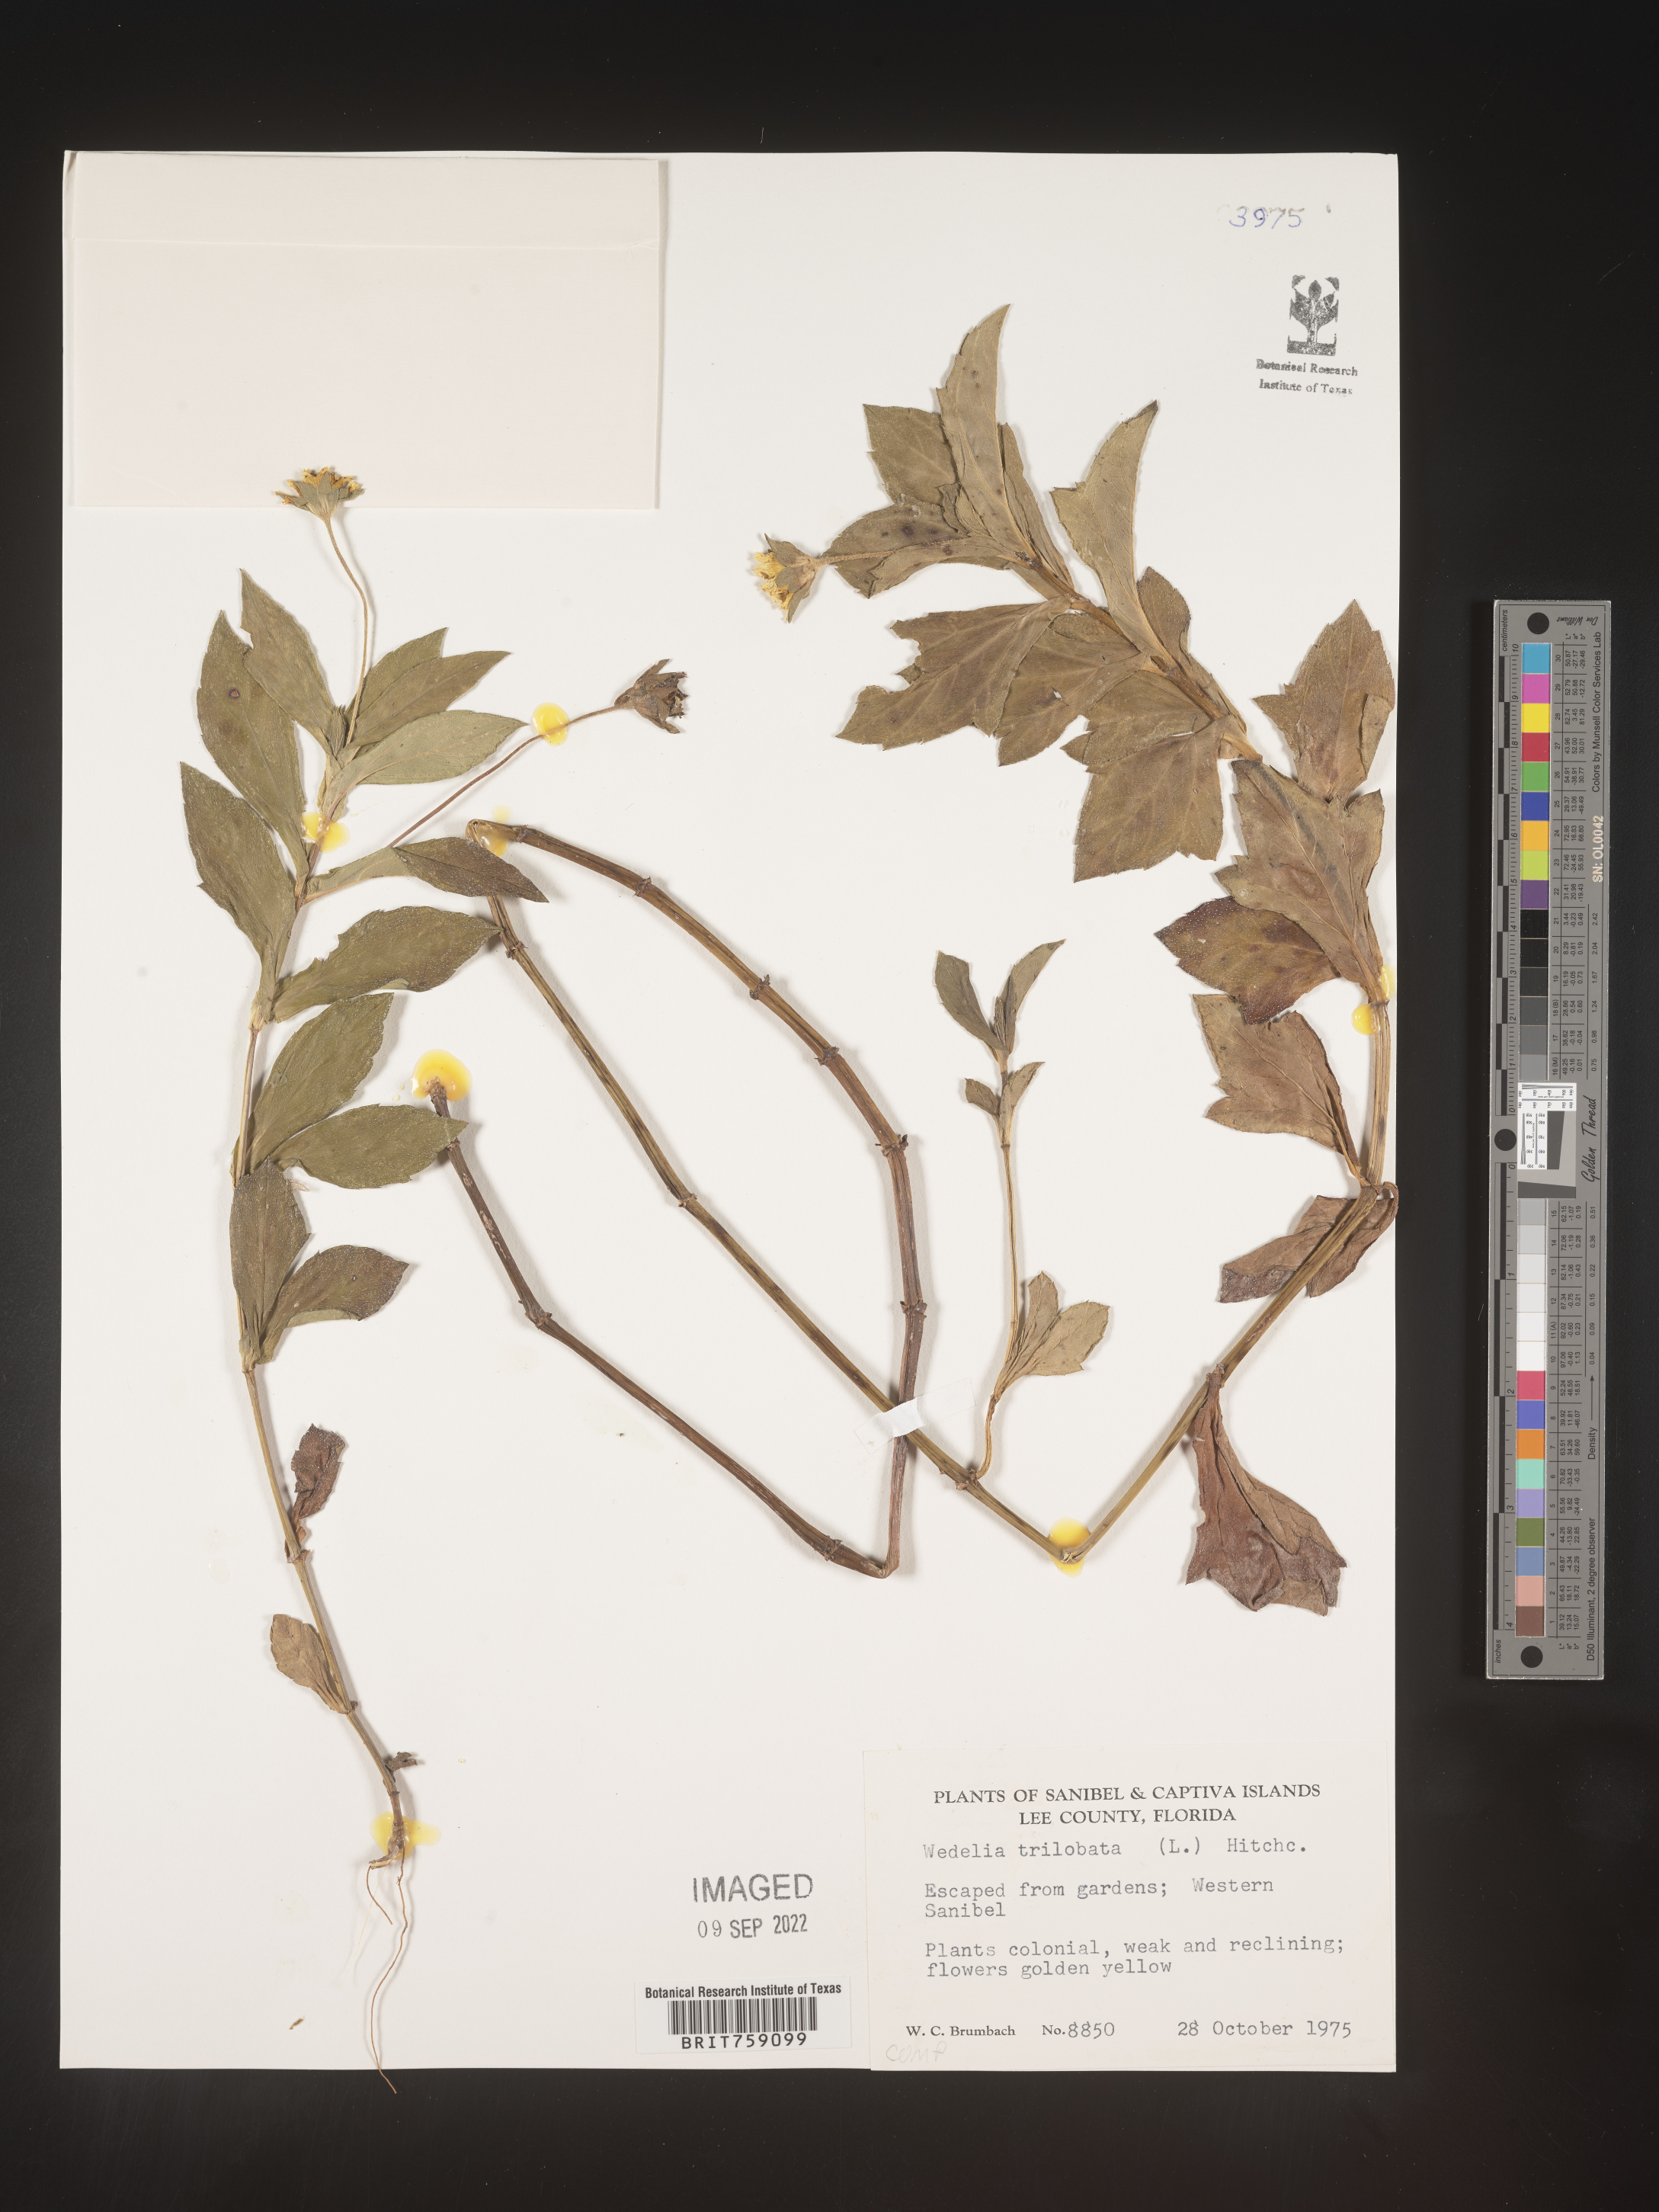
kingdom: Plantae
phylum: Tracheophyta
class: Magnoliopsida
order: Asterales
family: Asteraceae
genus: Sphagneticola
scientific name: Sphagneticola trilobata
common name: Bay biscayne creeping-oxeye
